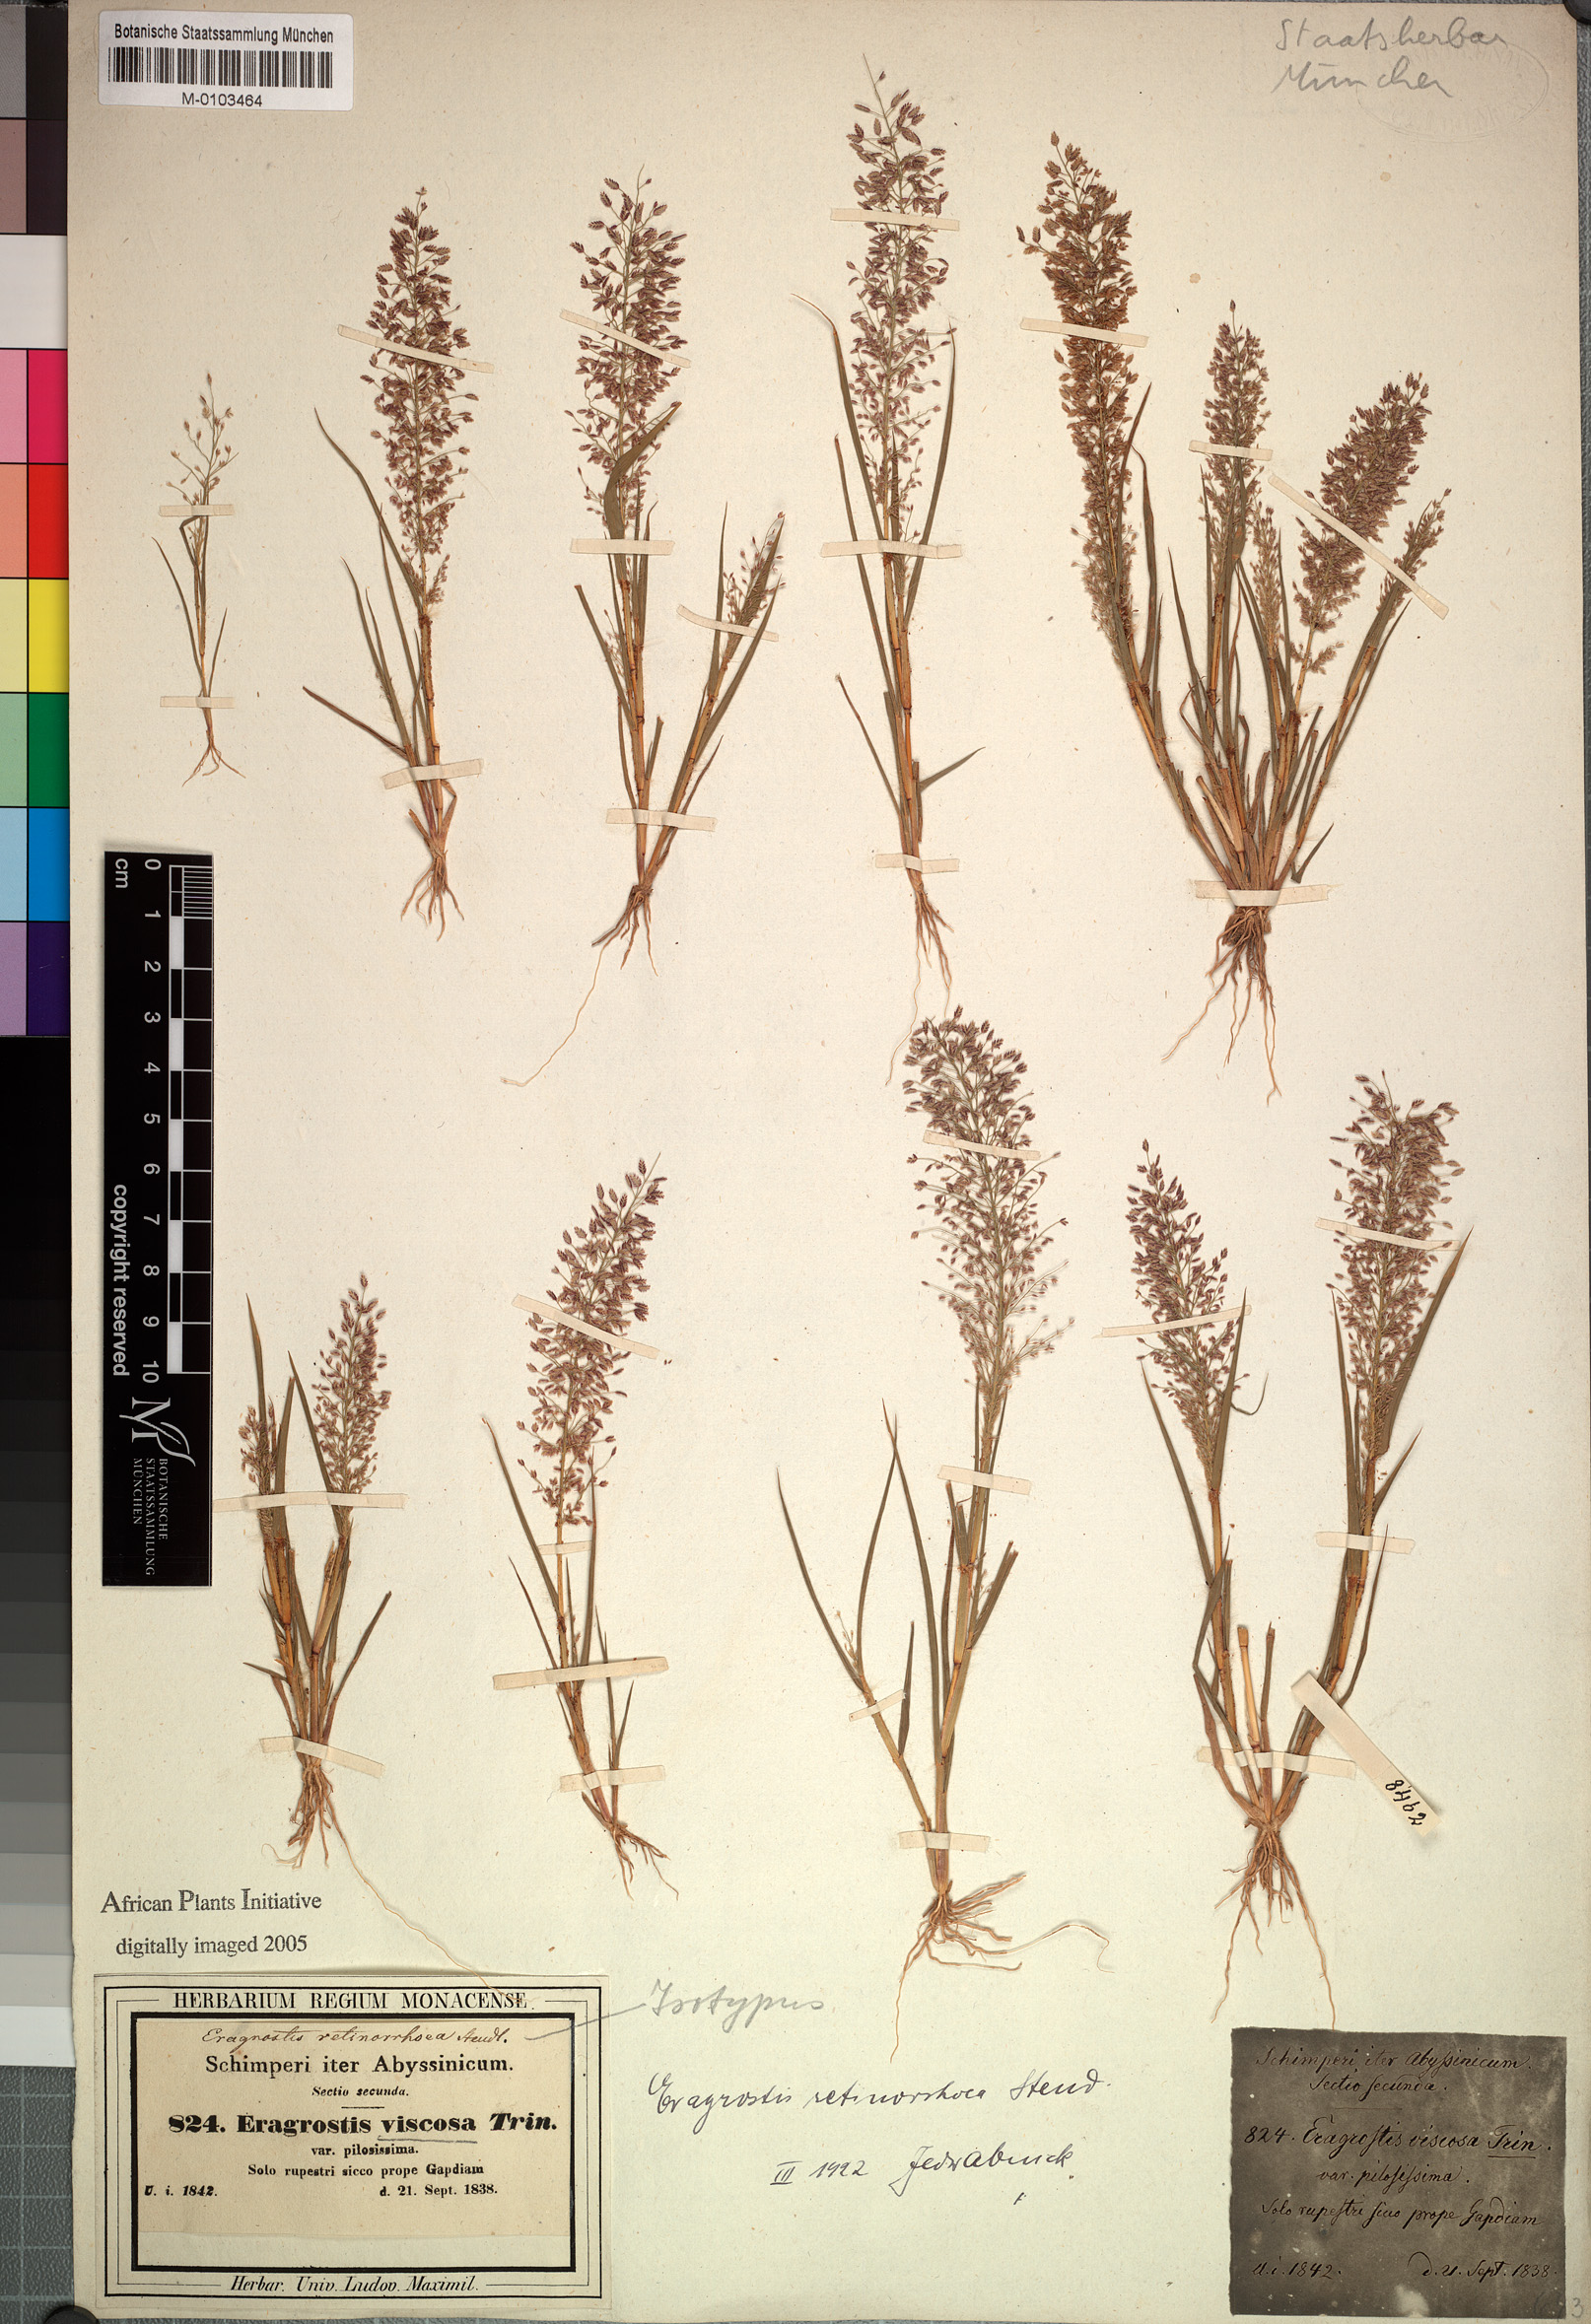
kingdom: Plantae
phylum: Tracheophyta
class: Liliopsida
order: Poales
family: Poaceae
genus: Eragrostis
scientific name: Eragrostis viscosa
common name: Sticky love grass
